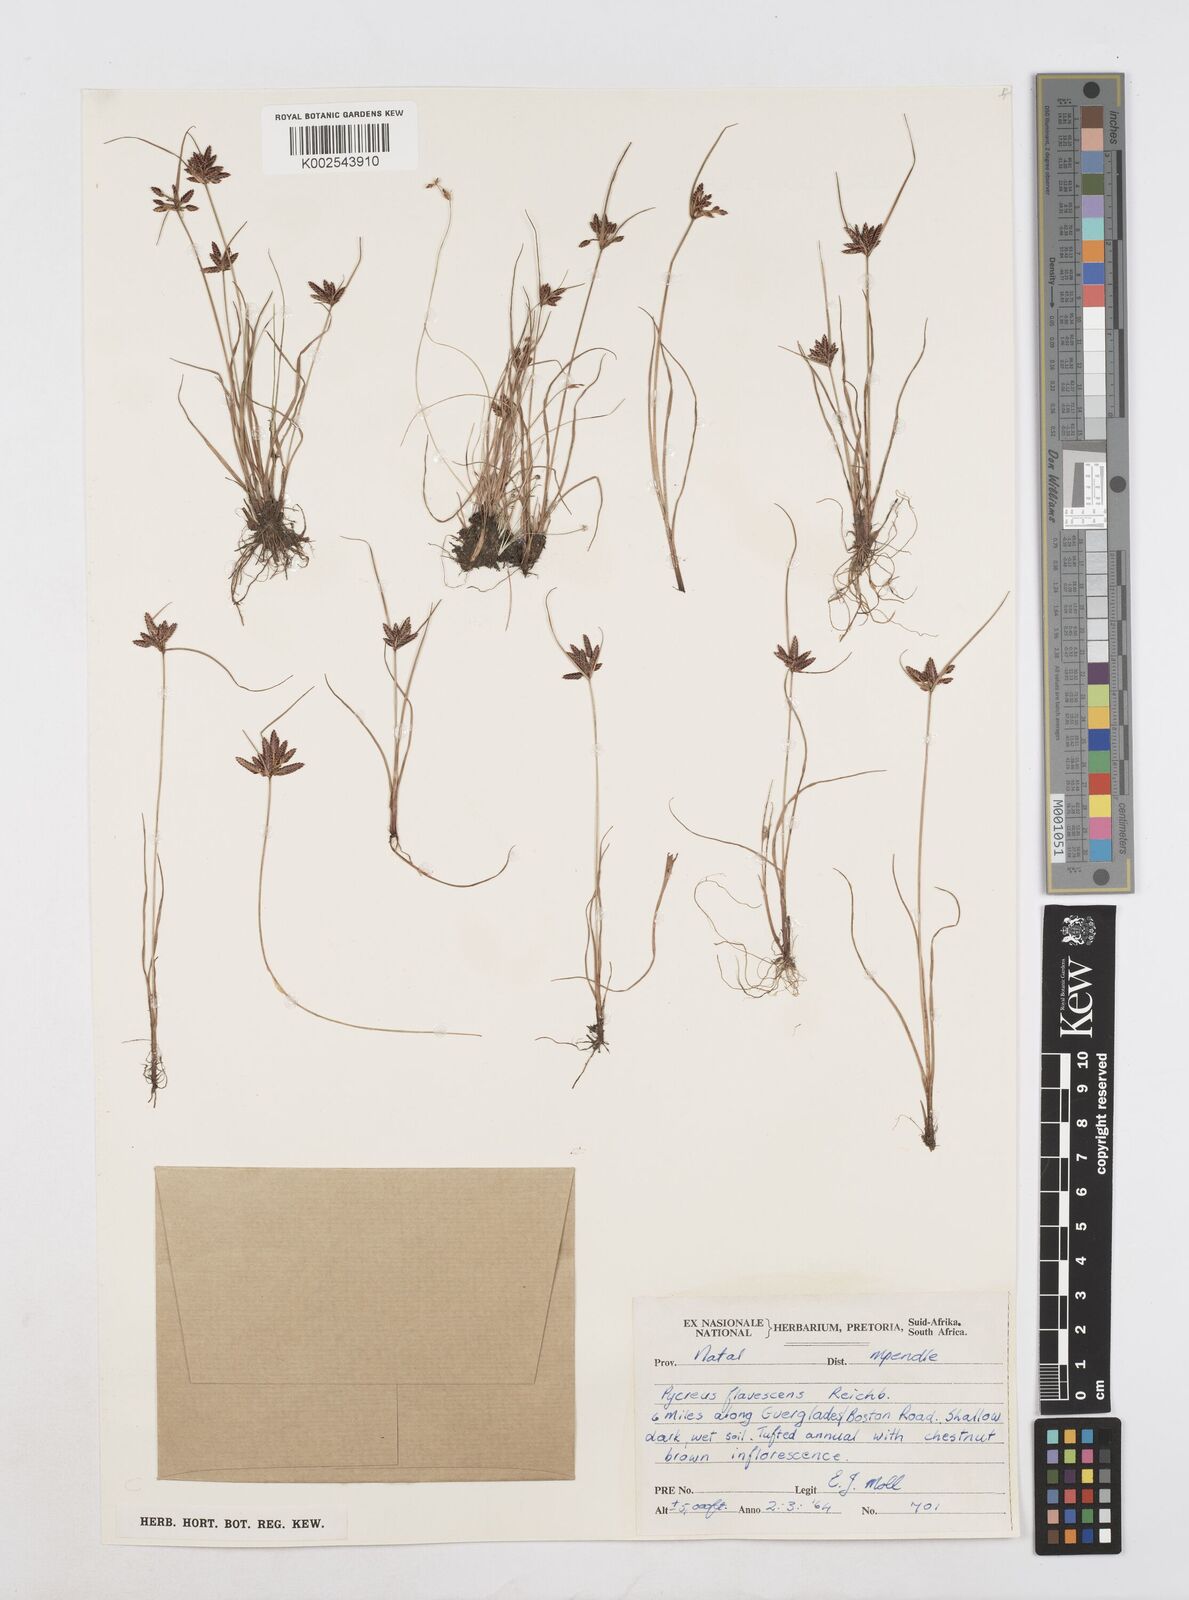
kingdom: Plantae
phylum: Tracheophyta
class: Liliopsida
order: Poales
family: Cyperaceae
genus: Cyperus
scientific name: Cyperus flavescens
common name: Yellow galingale
